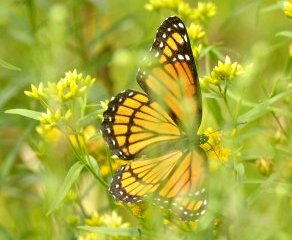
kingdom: Animalia
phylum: Arthropoda
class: Insecta
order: Lepidoptera
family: Nymphalidae
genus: Limenitis
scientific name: Limenitis archippus
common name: Viceroy
